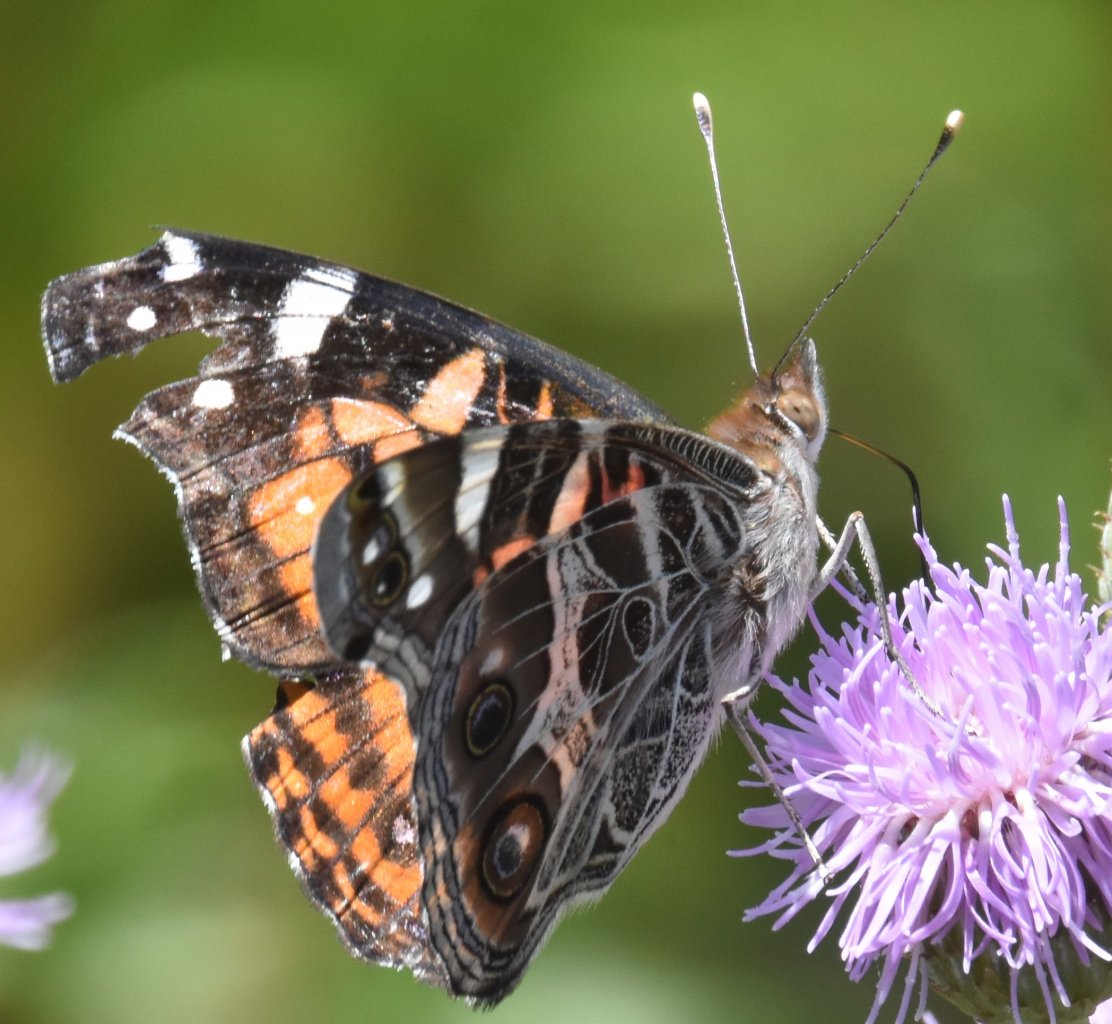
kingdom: Animalia
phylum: Arthropoda
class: Insecta
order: Lepidoptera
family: Nymphalidae
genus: Vanessa
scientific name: Vanessa virginiensis
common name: American Lady
